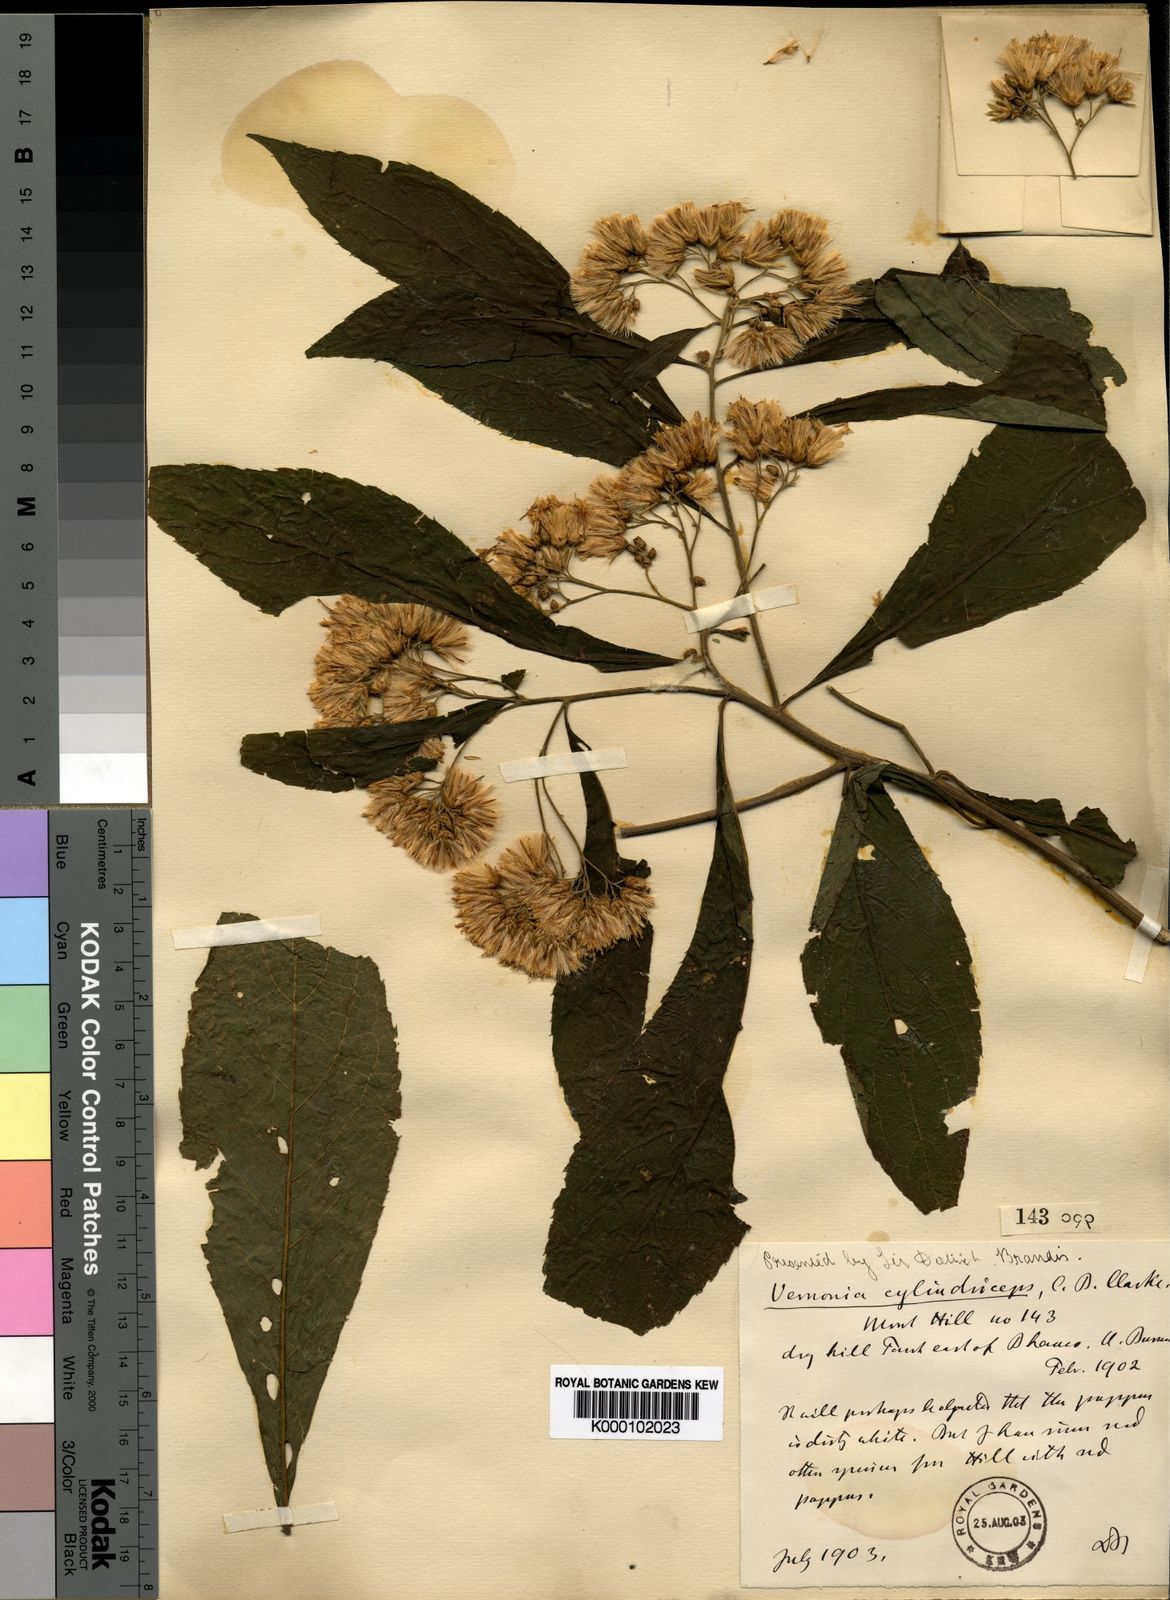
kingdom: Plantae
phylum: Tracheophyta
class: Magnoliopsida
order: Asterales
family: Asteraceae
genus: Gymnanthemum
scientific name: Gymnanthemum extensum
